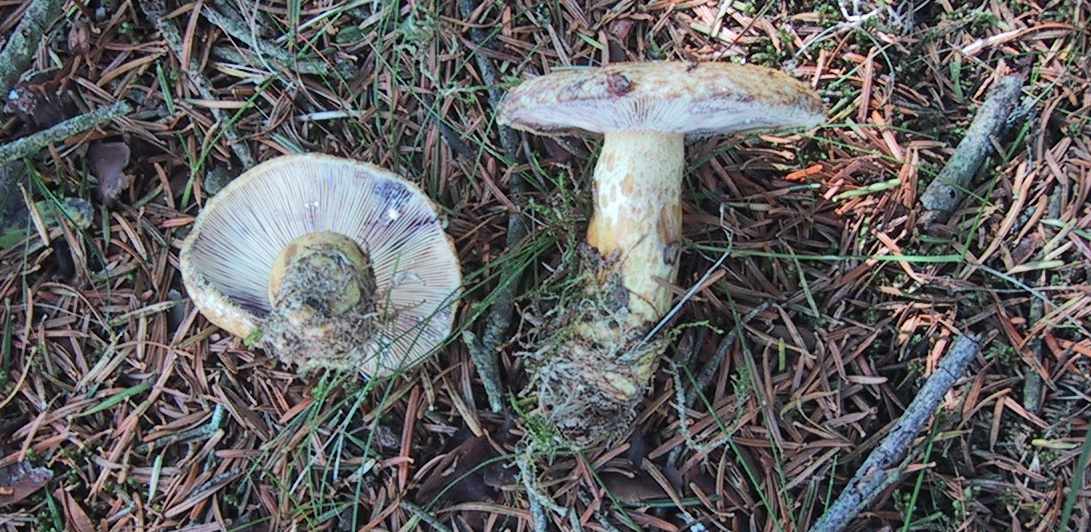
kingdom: Fungi
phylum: Basidiomycota
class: Agaricomycetes
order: Russulales
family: Russulaceae
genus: Lactarius
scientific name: Lactarius repraesentaneus
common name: prægtig mælkehat
